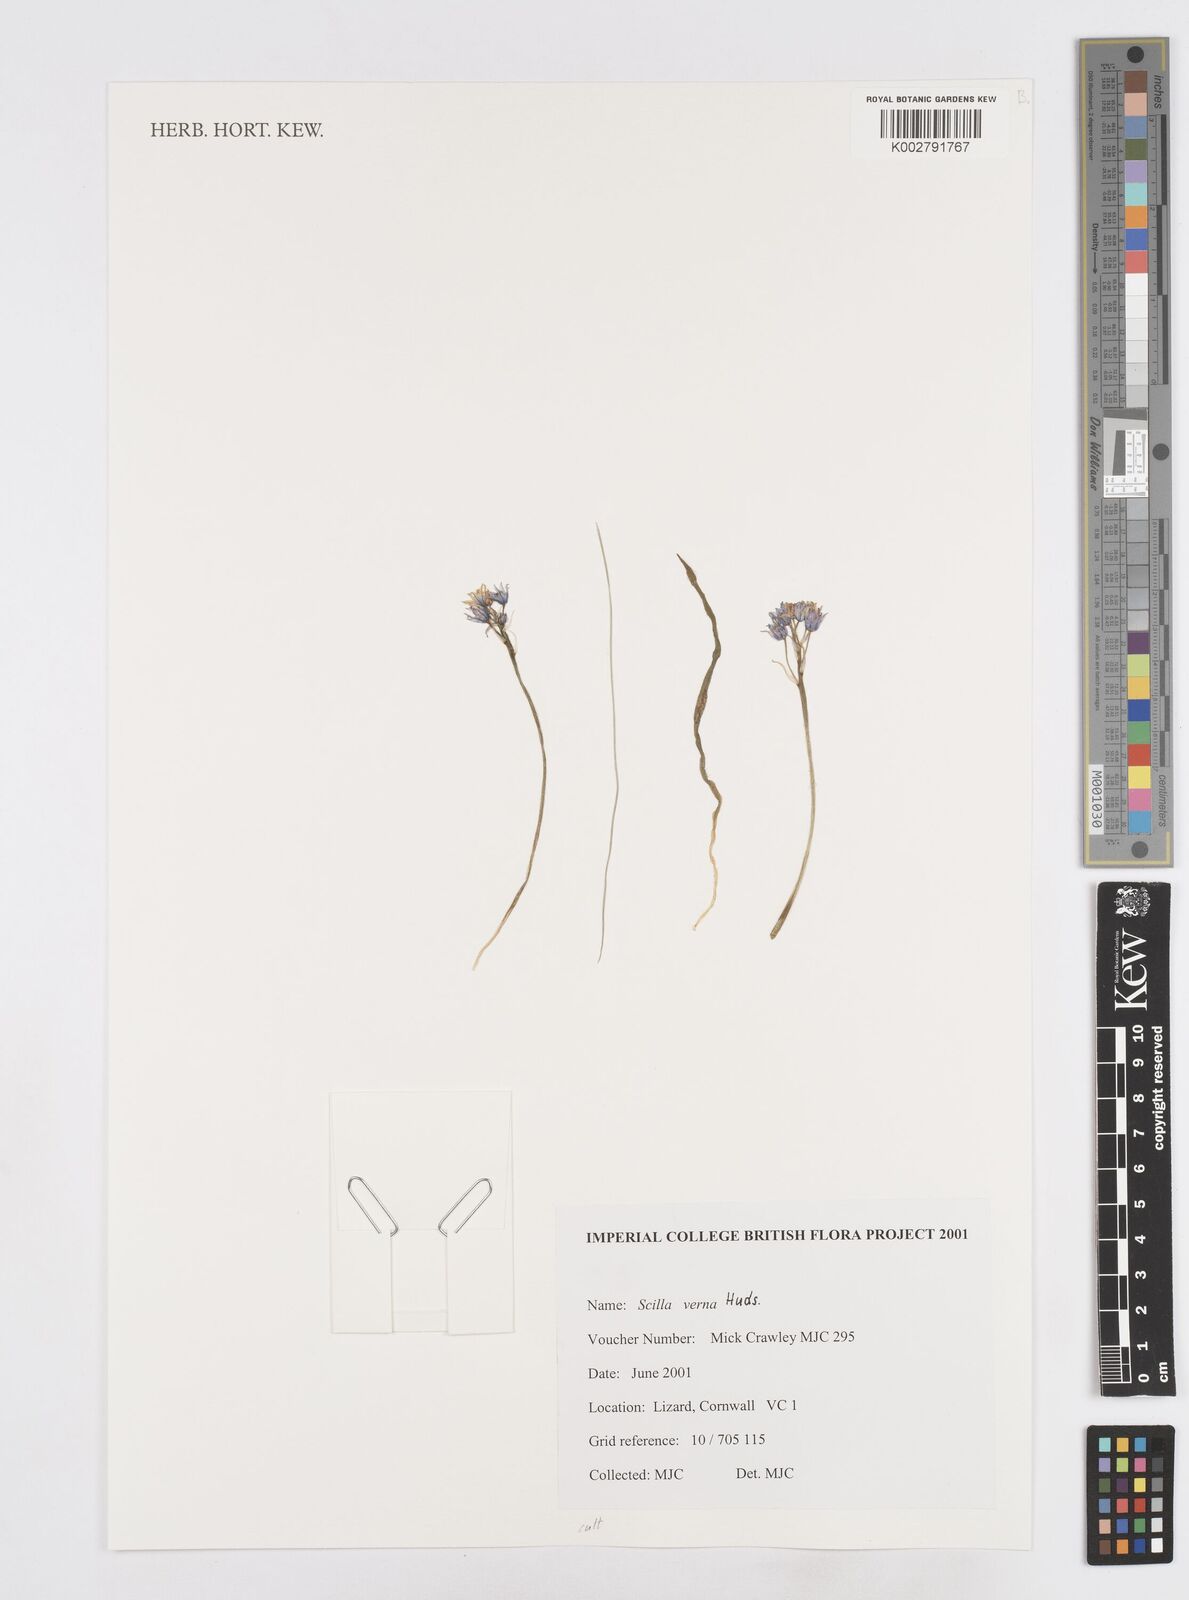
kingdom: Plantae
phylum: Tracheophyta
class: Liliopsida
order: Asparagales
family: Asparagaceae
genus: Scilla
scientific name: Scilla verna
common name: Spring squill
